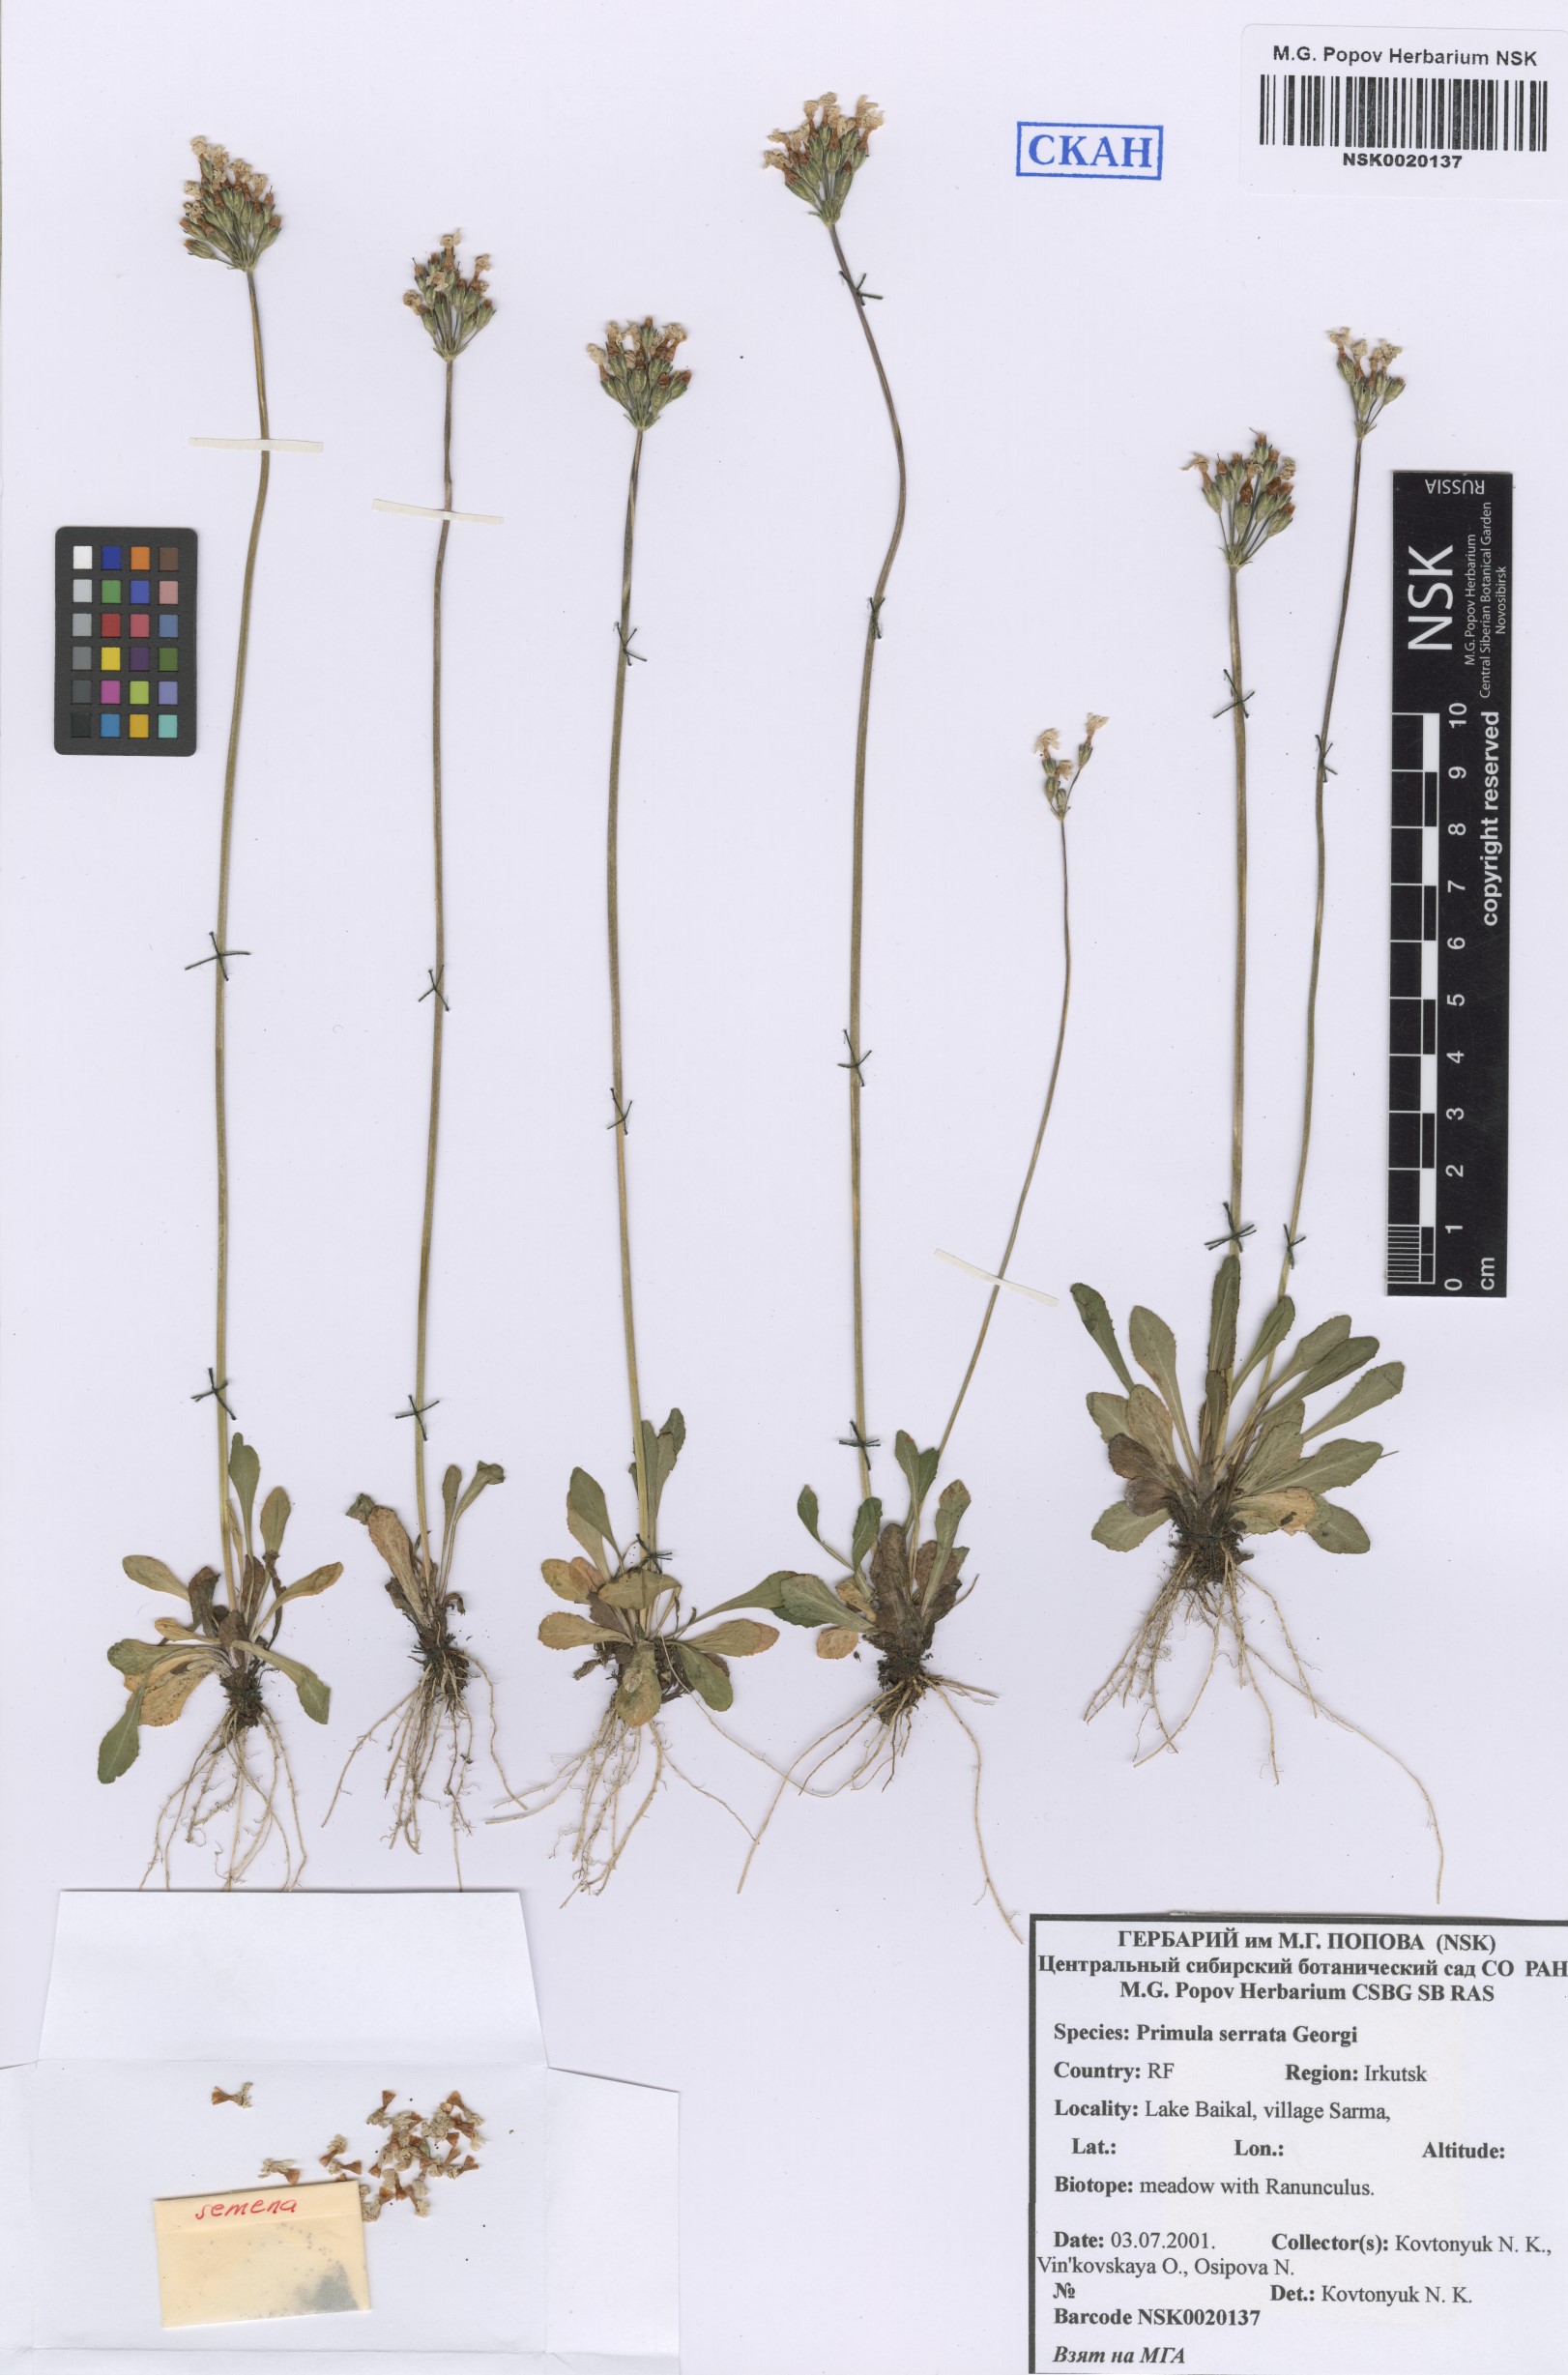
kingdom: Plantae
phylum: Tracheophyta
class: Magnoliopsida
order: Ericales
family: Primulaceae
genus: Primula
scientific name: Primula serrata
